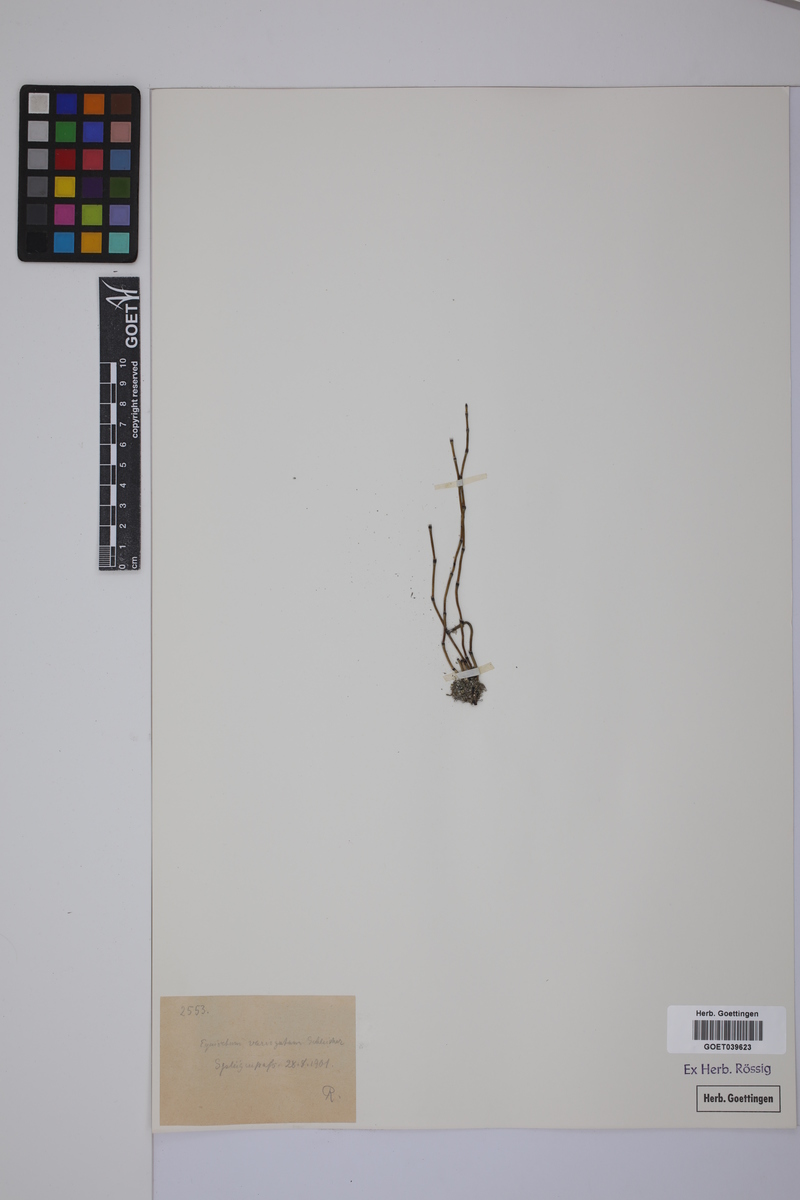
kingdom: Plantae
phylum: Tracheophyta
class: Polypodiopsida
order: Equisetales
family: Equisetaceae
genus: Equisetum
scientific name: Equisetum variegatum
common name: Variegated horsetail
